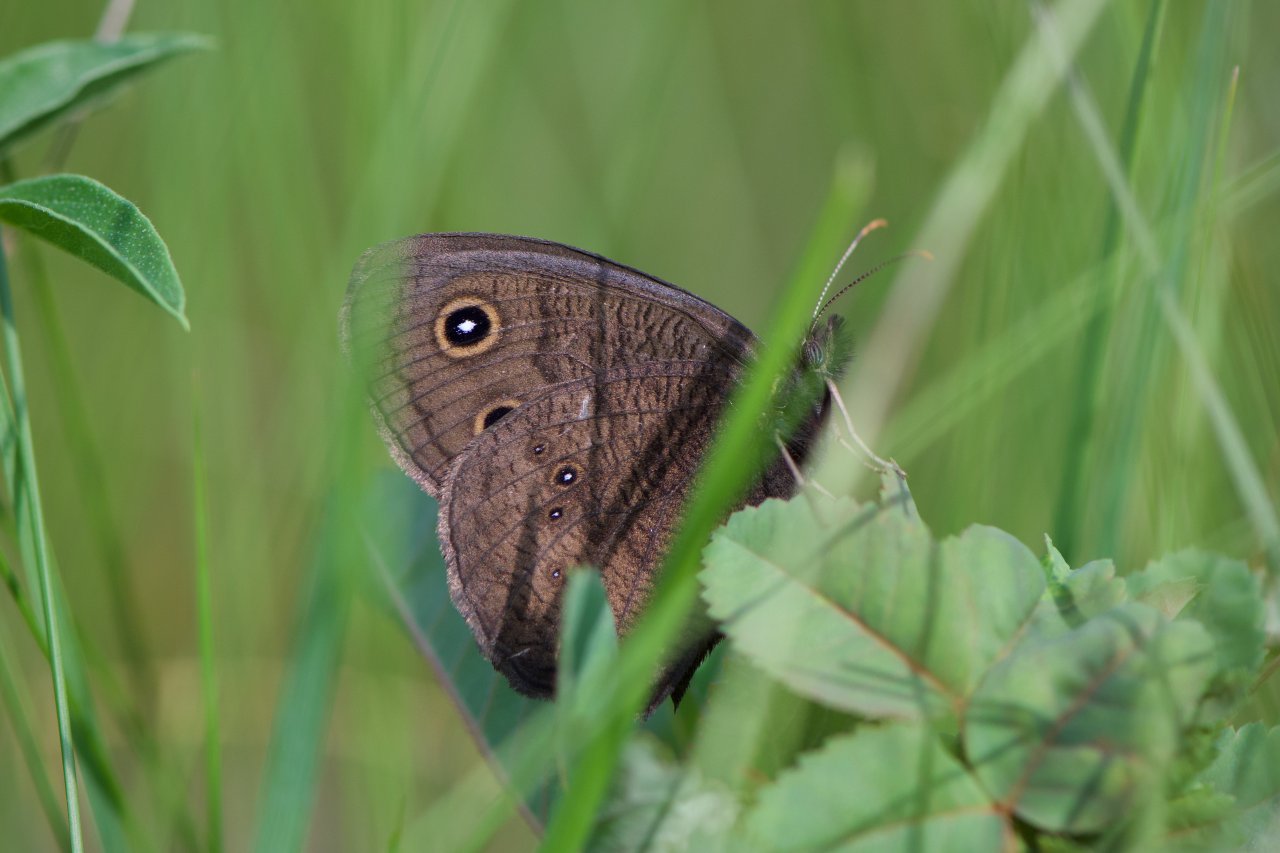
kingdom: Animalia
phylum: Arthropoda
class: Insecta
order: Lepidoptera
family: Nymphalidae
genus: Cercyonis
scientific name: Cercyonis pegala
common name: Common Wood-Nymph
